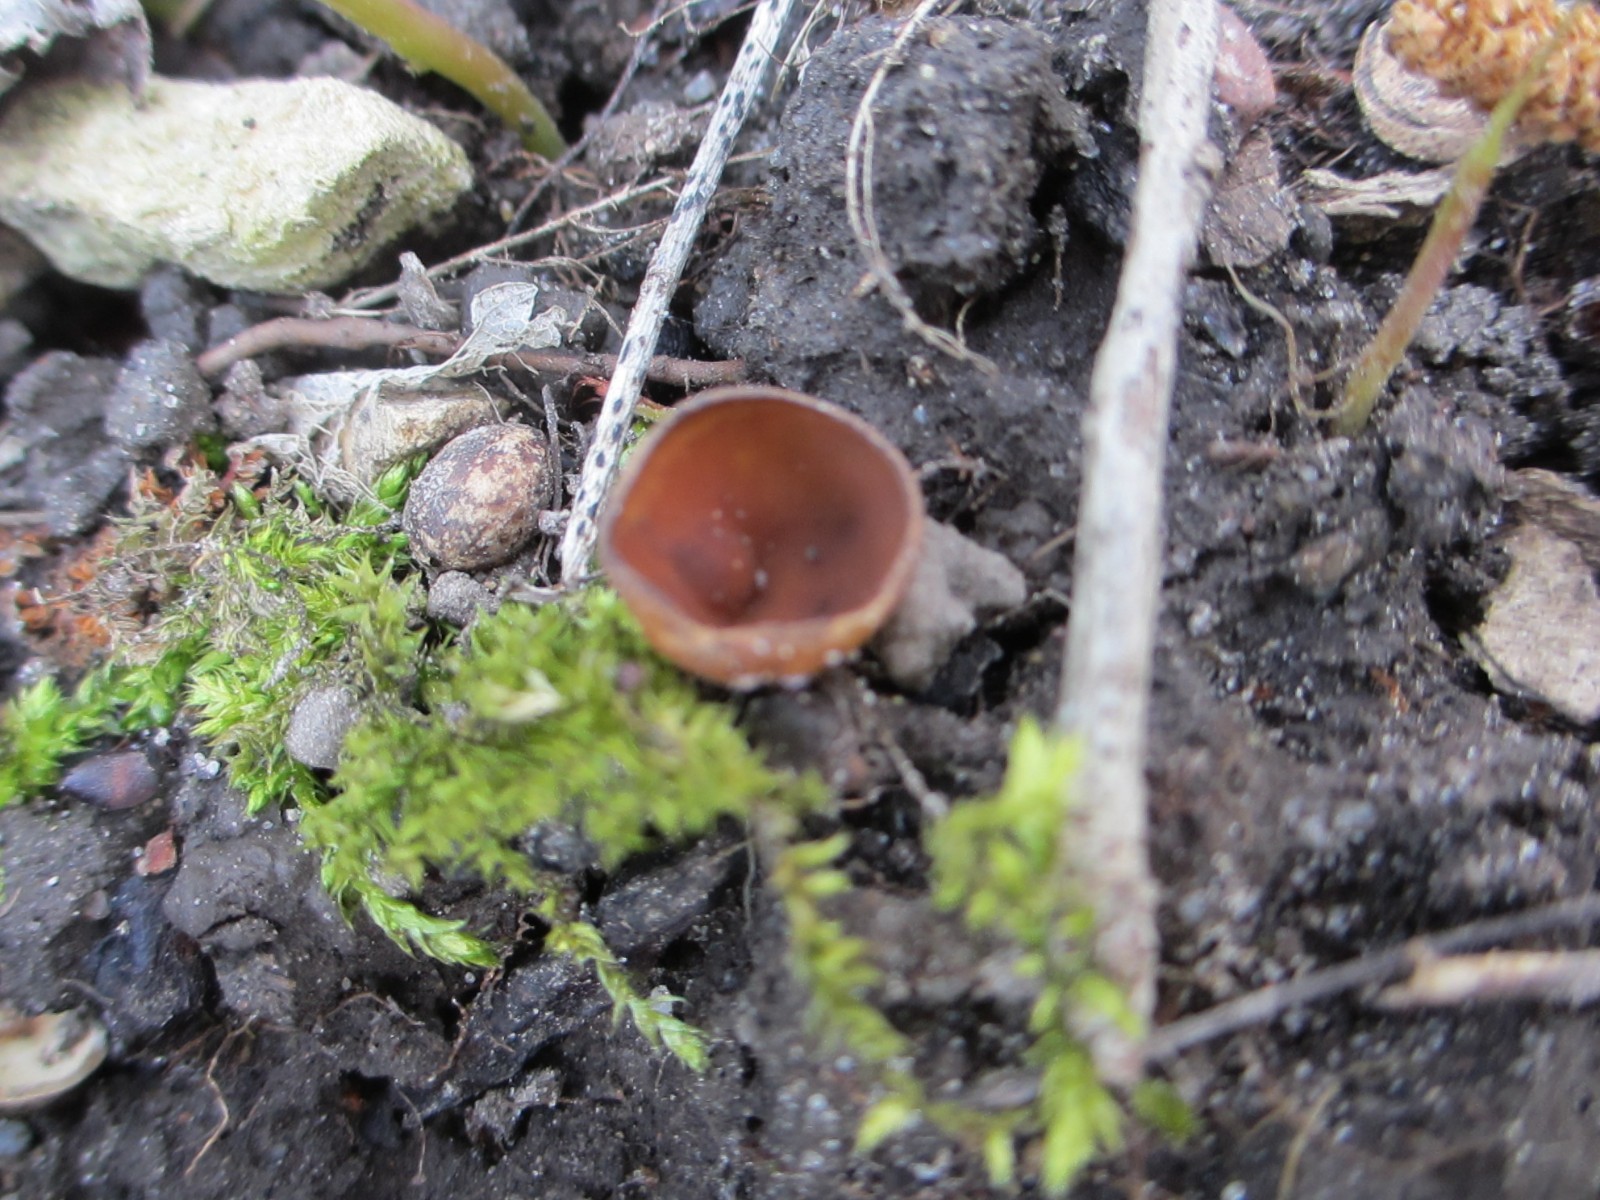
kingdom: Fungi
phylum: Ascomycota
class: Leotiomycetes
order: Helotiales
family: Sclerotiniaceae
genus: Dumontinia
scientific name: Dumontinia tuberosa
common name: anemone-knoldskive
